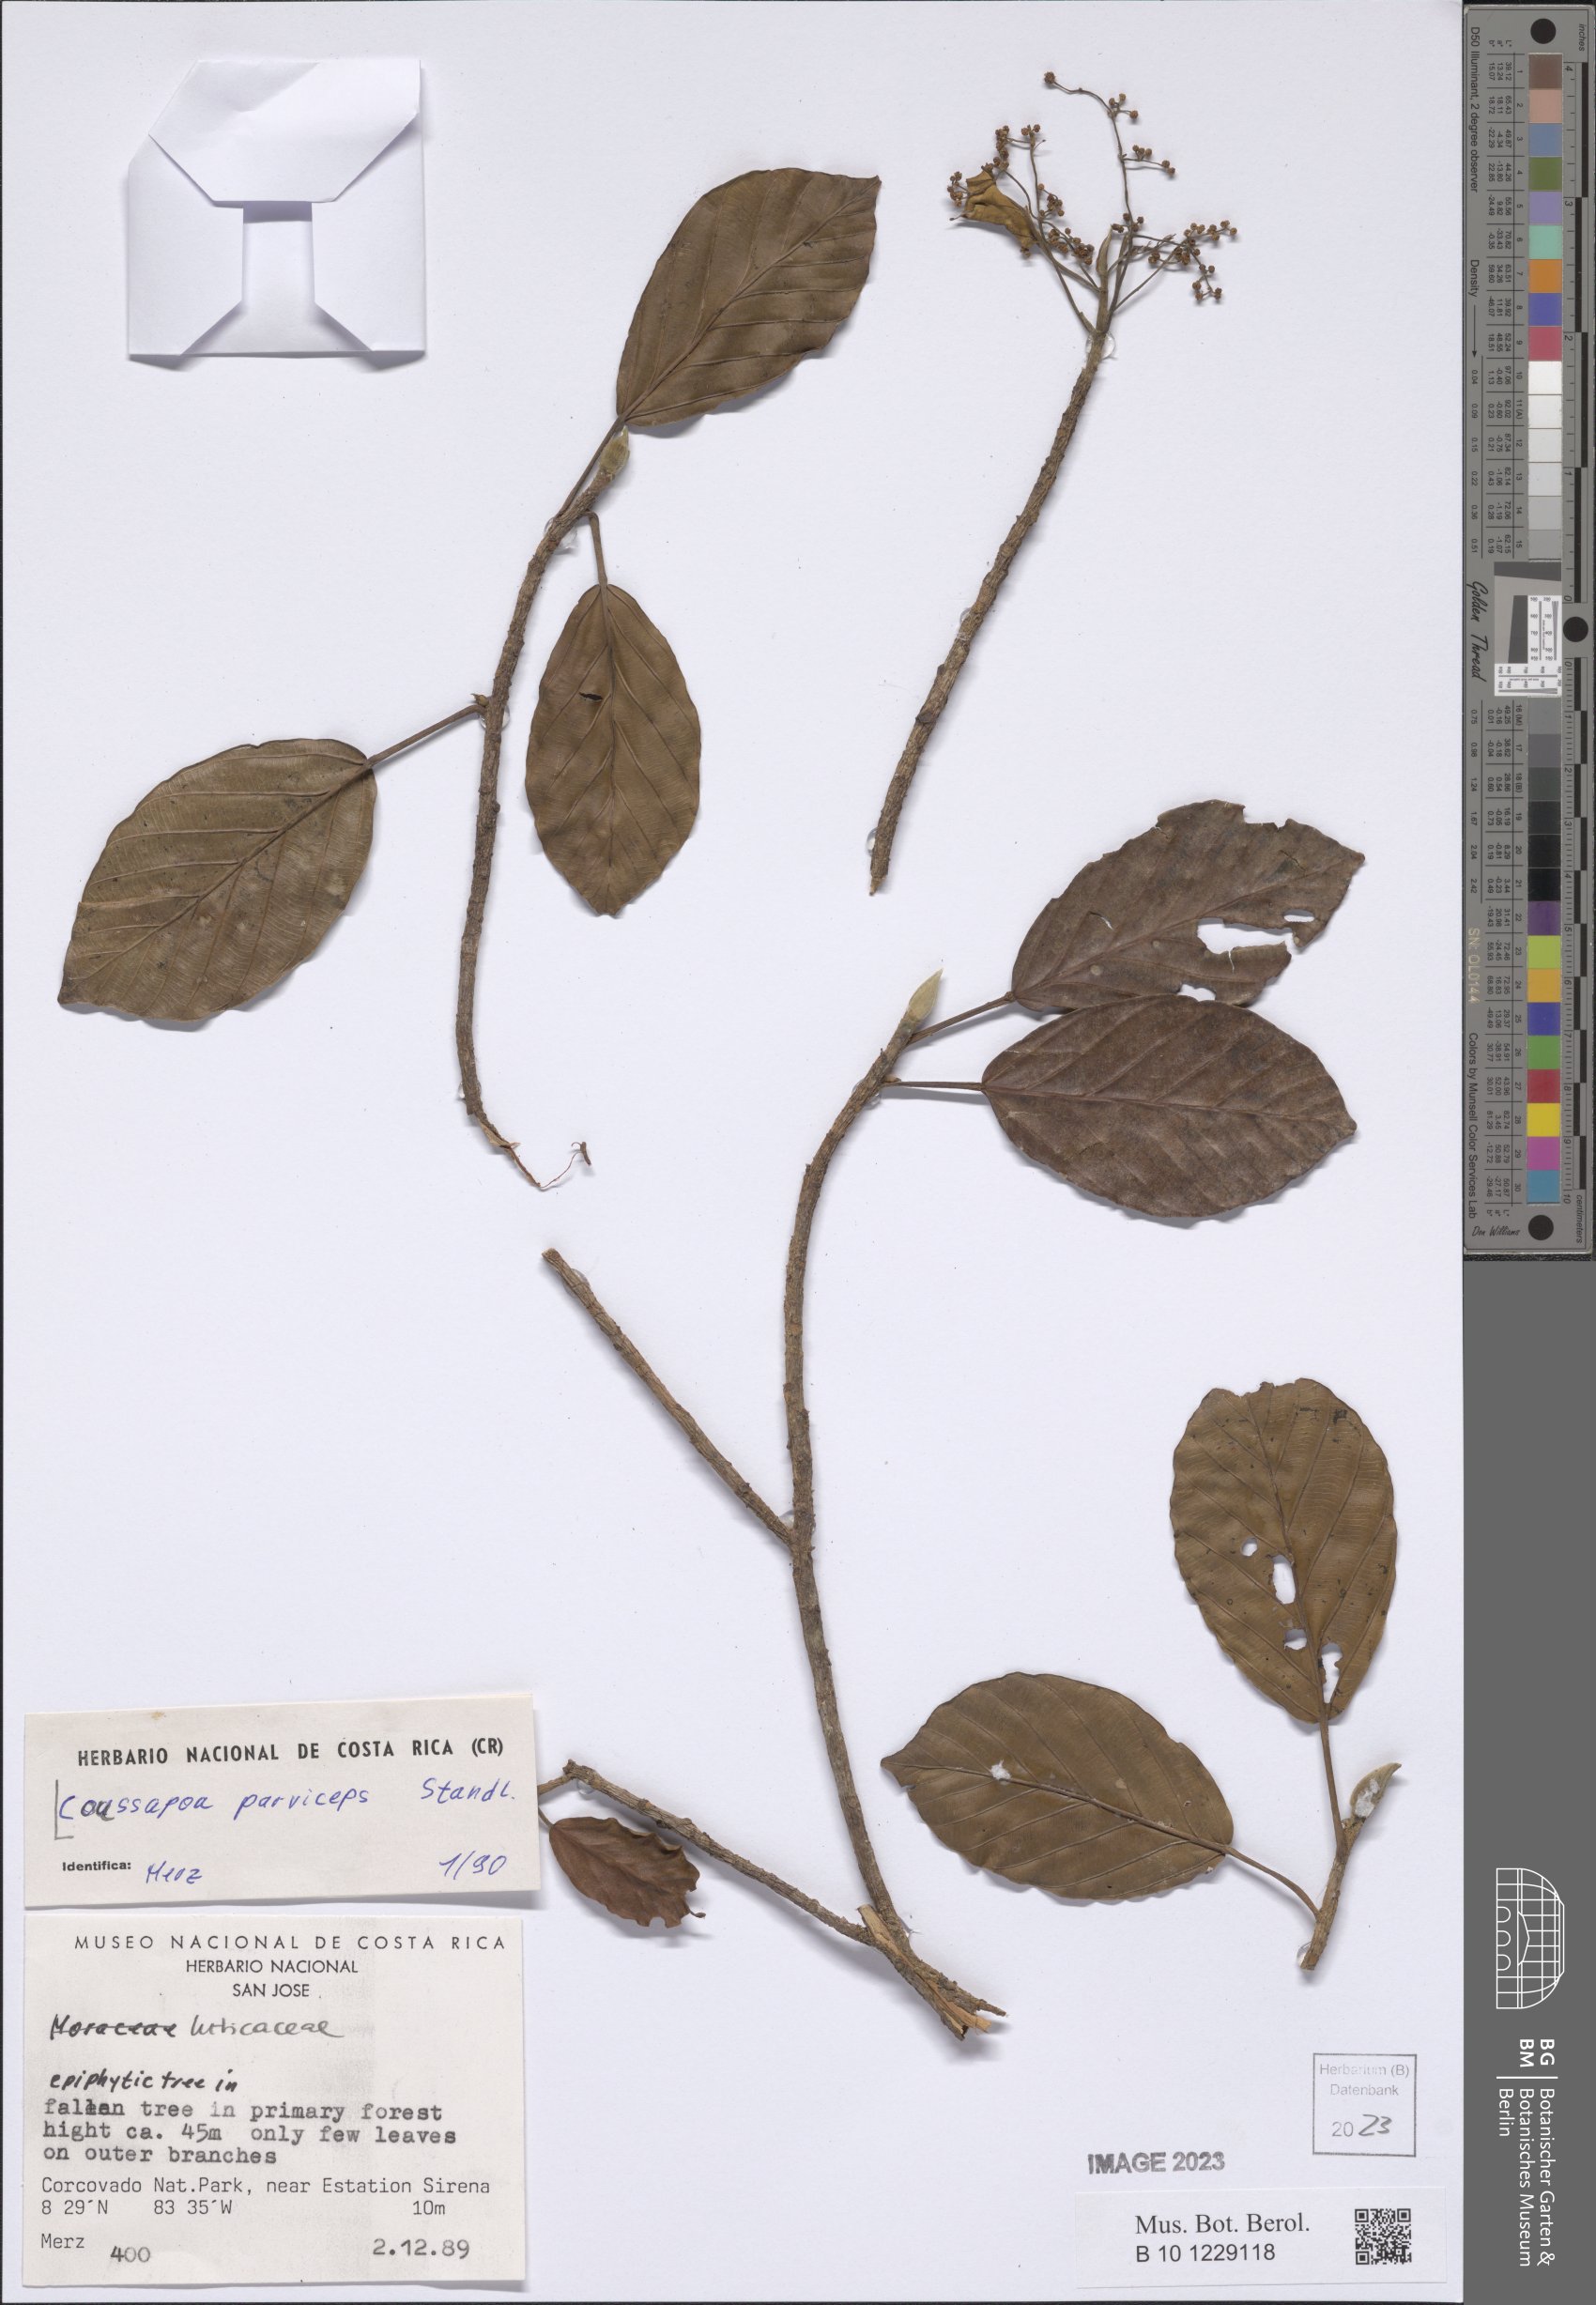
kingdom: Plantae
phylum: Tracheophyta
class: Magnoliopsida
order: Rosales
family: Urticaceae
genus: Coussapoa
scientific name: Coussapoa parviceps
